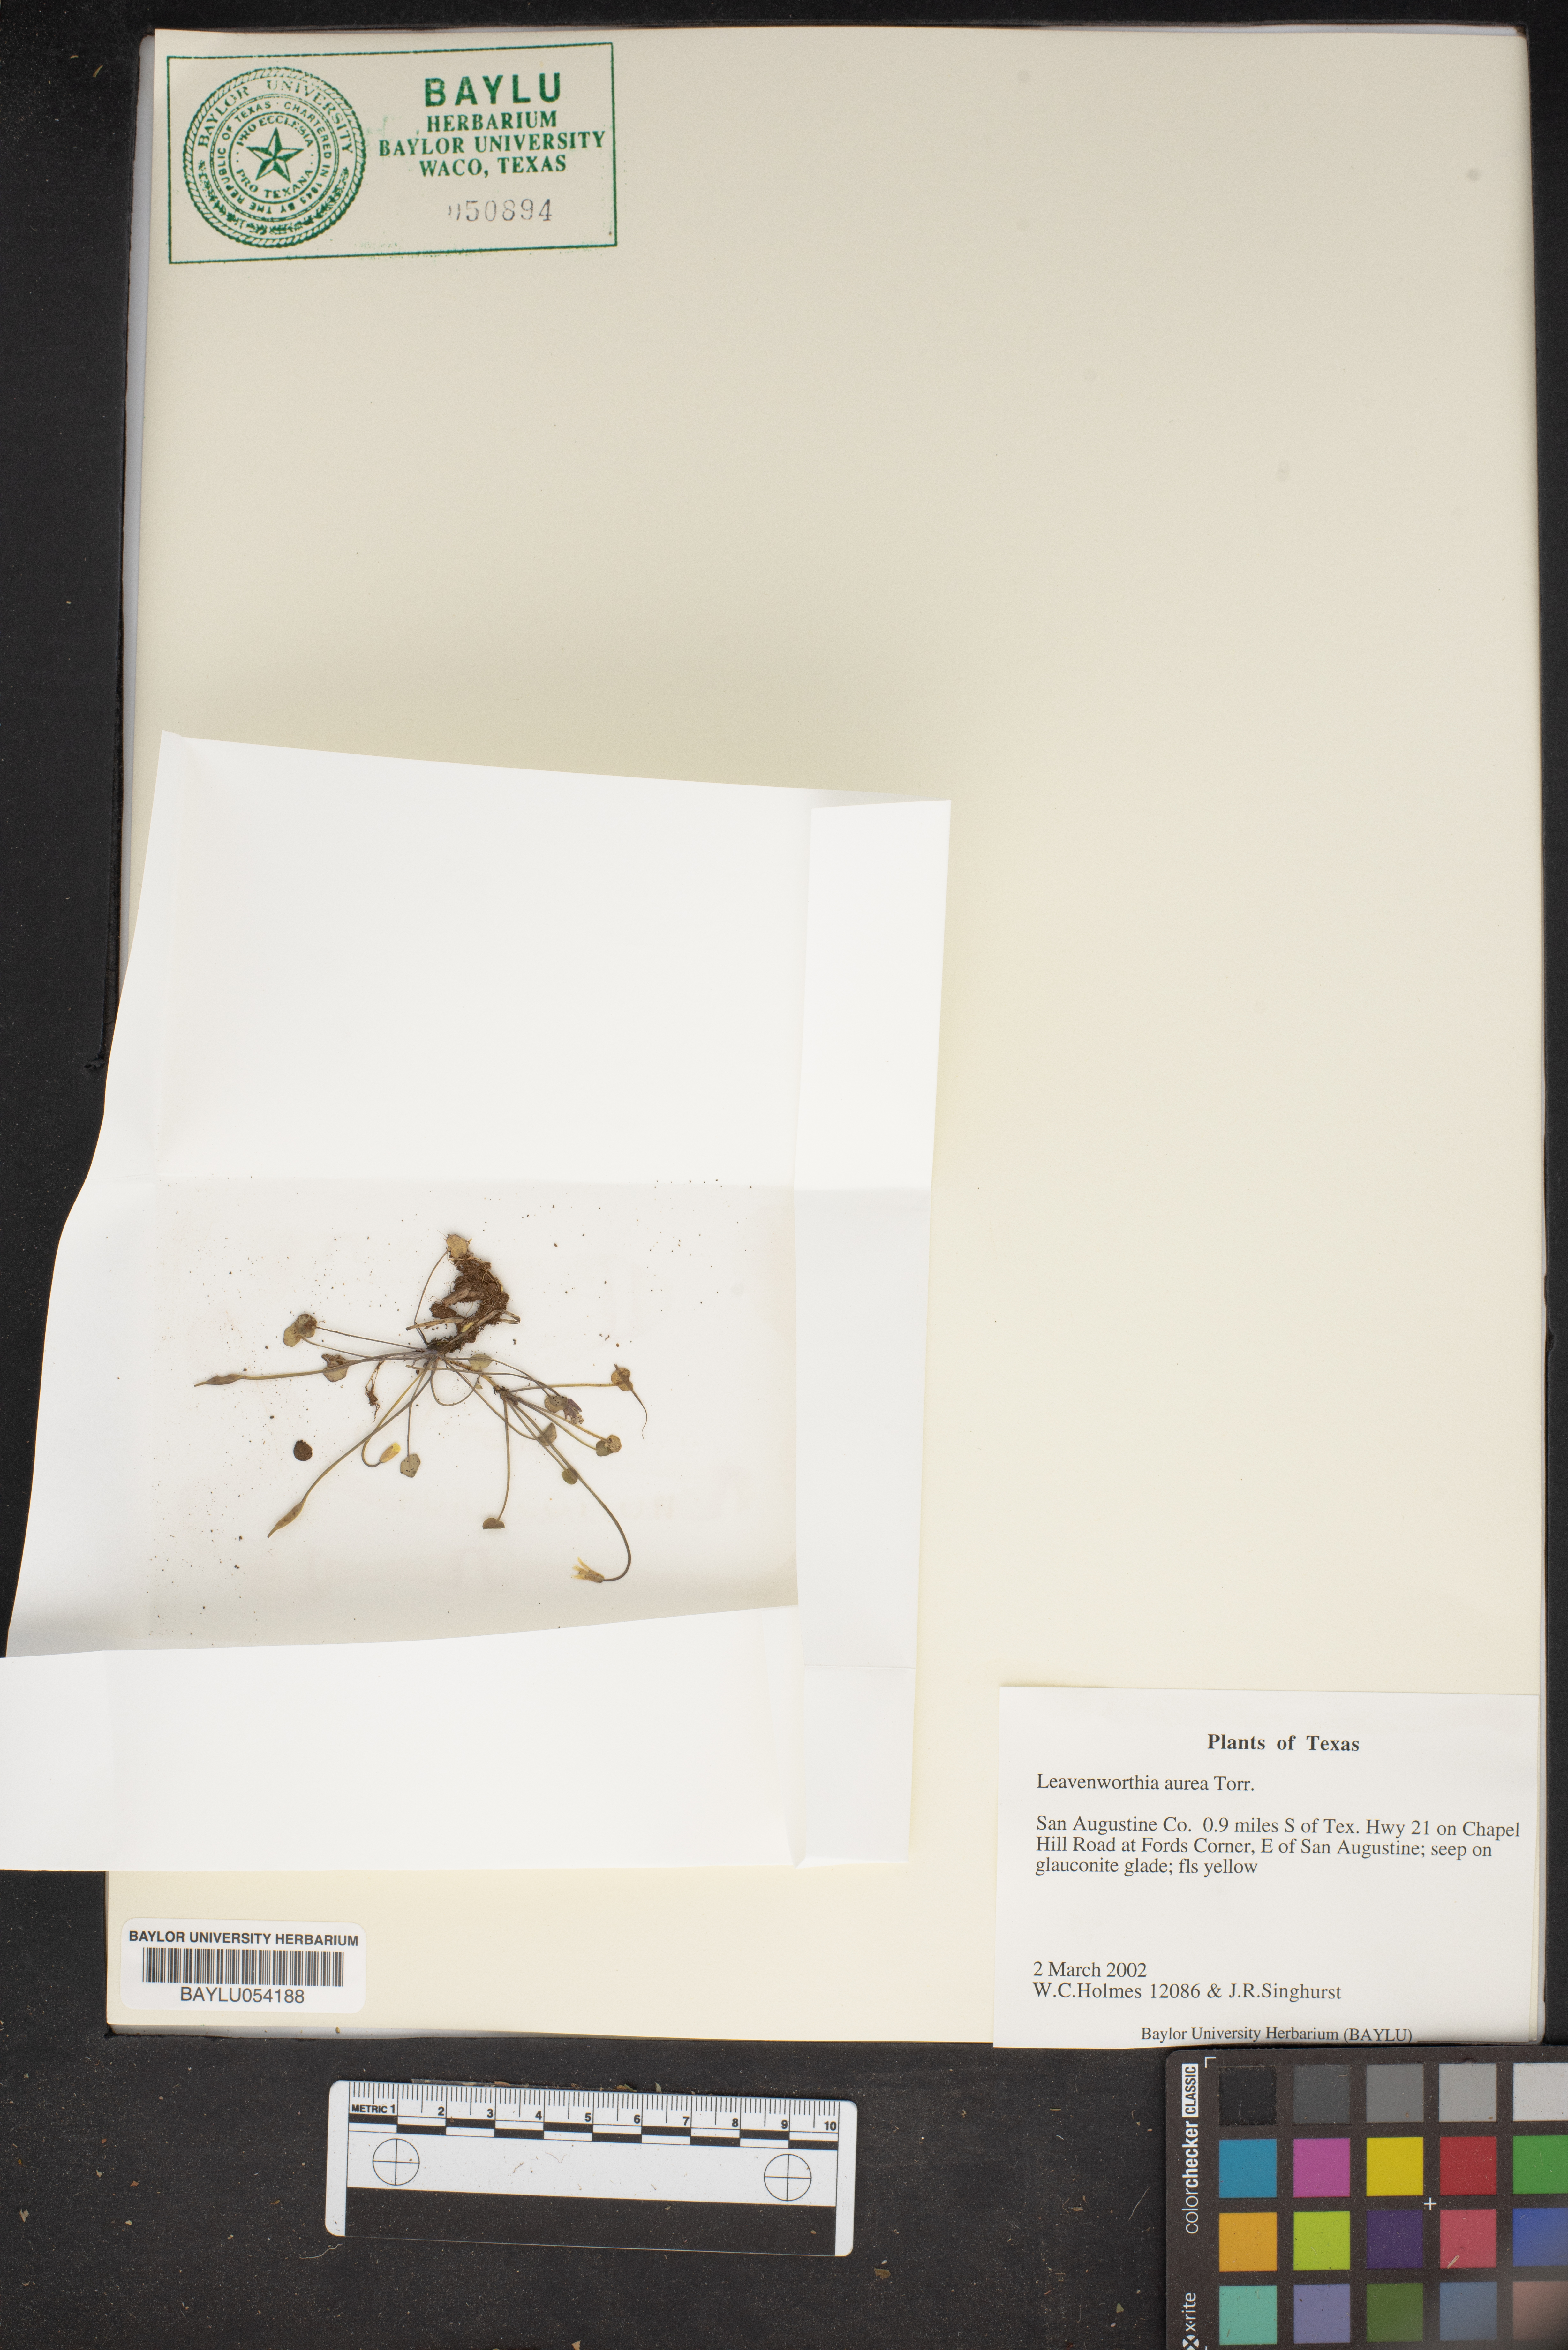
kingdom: Plantae
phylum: Tracheophyta
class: Magnoliopsida
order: Brassicales
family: Brassicaceae
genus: Leavenworthia
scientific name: Leavenworthia aurea
